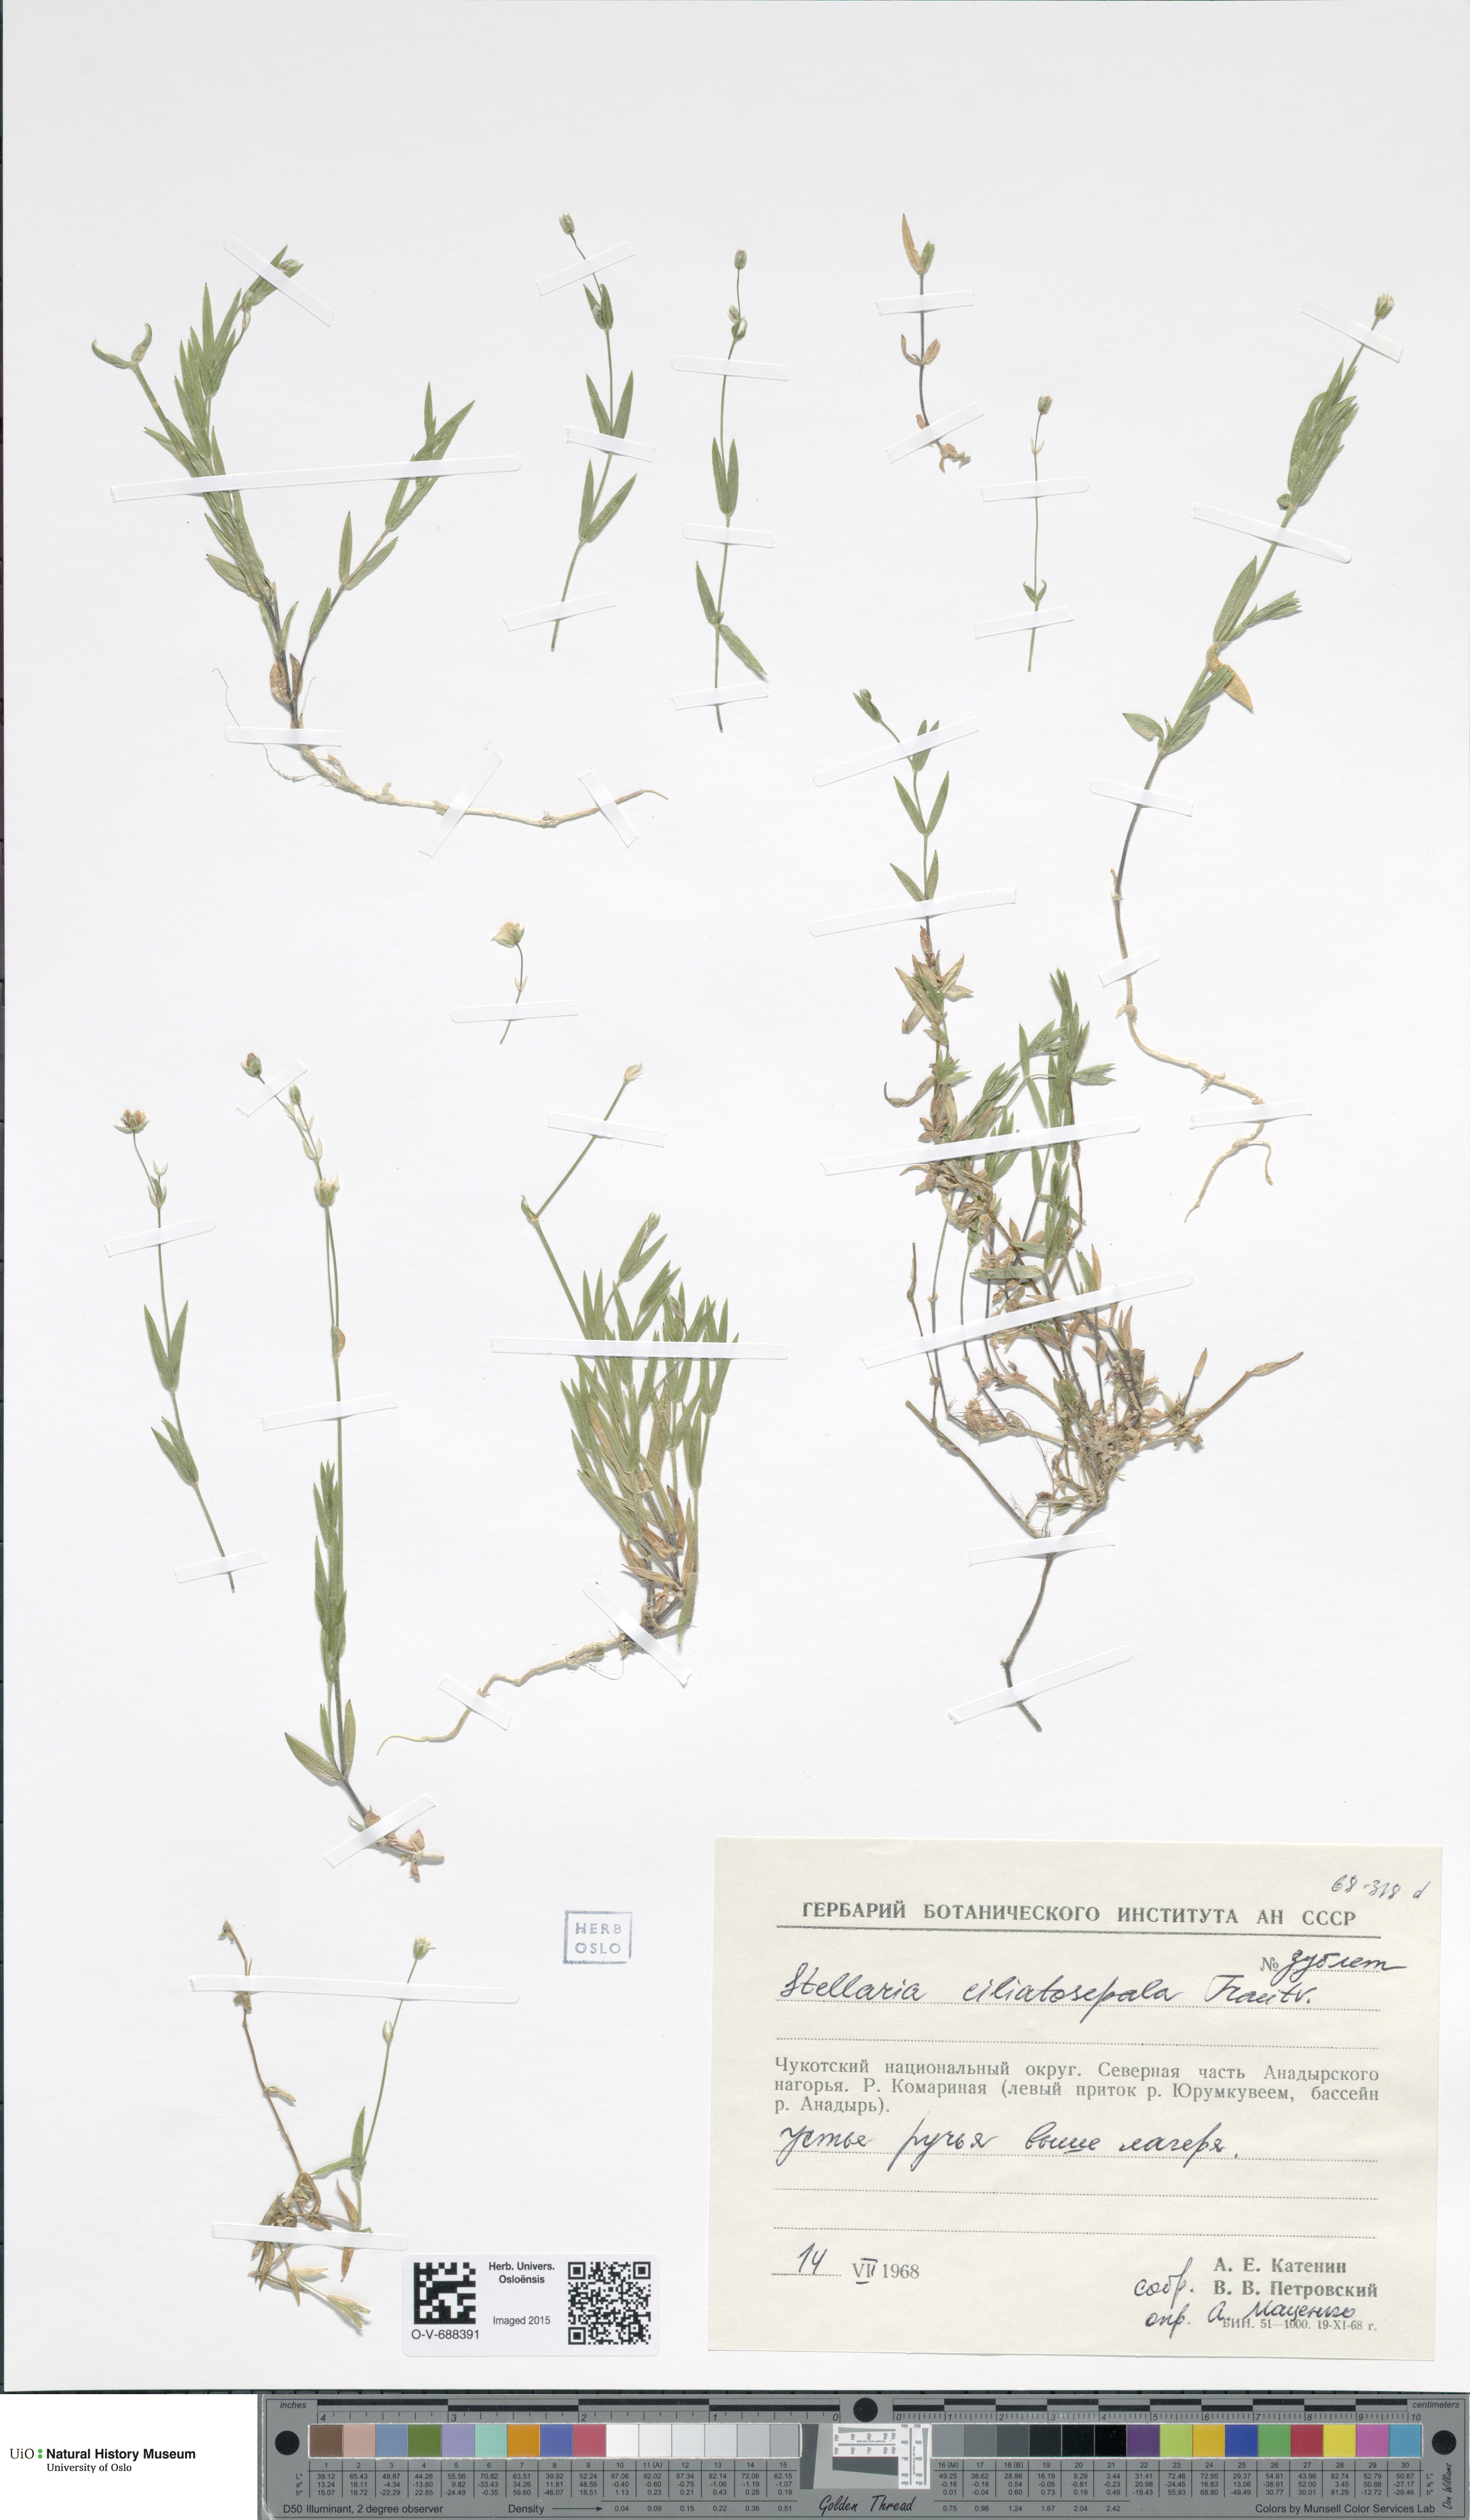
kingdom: Plantae
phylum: Tracheophyta
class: Magnoliopsida
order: Caryophyllales
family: Caryophyllaceae
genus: Stellaria
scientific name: Stellaria longipes
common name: Goldie's starwort
